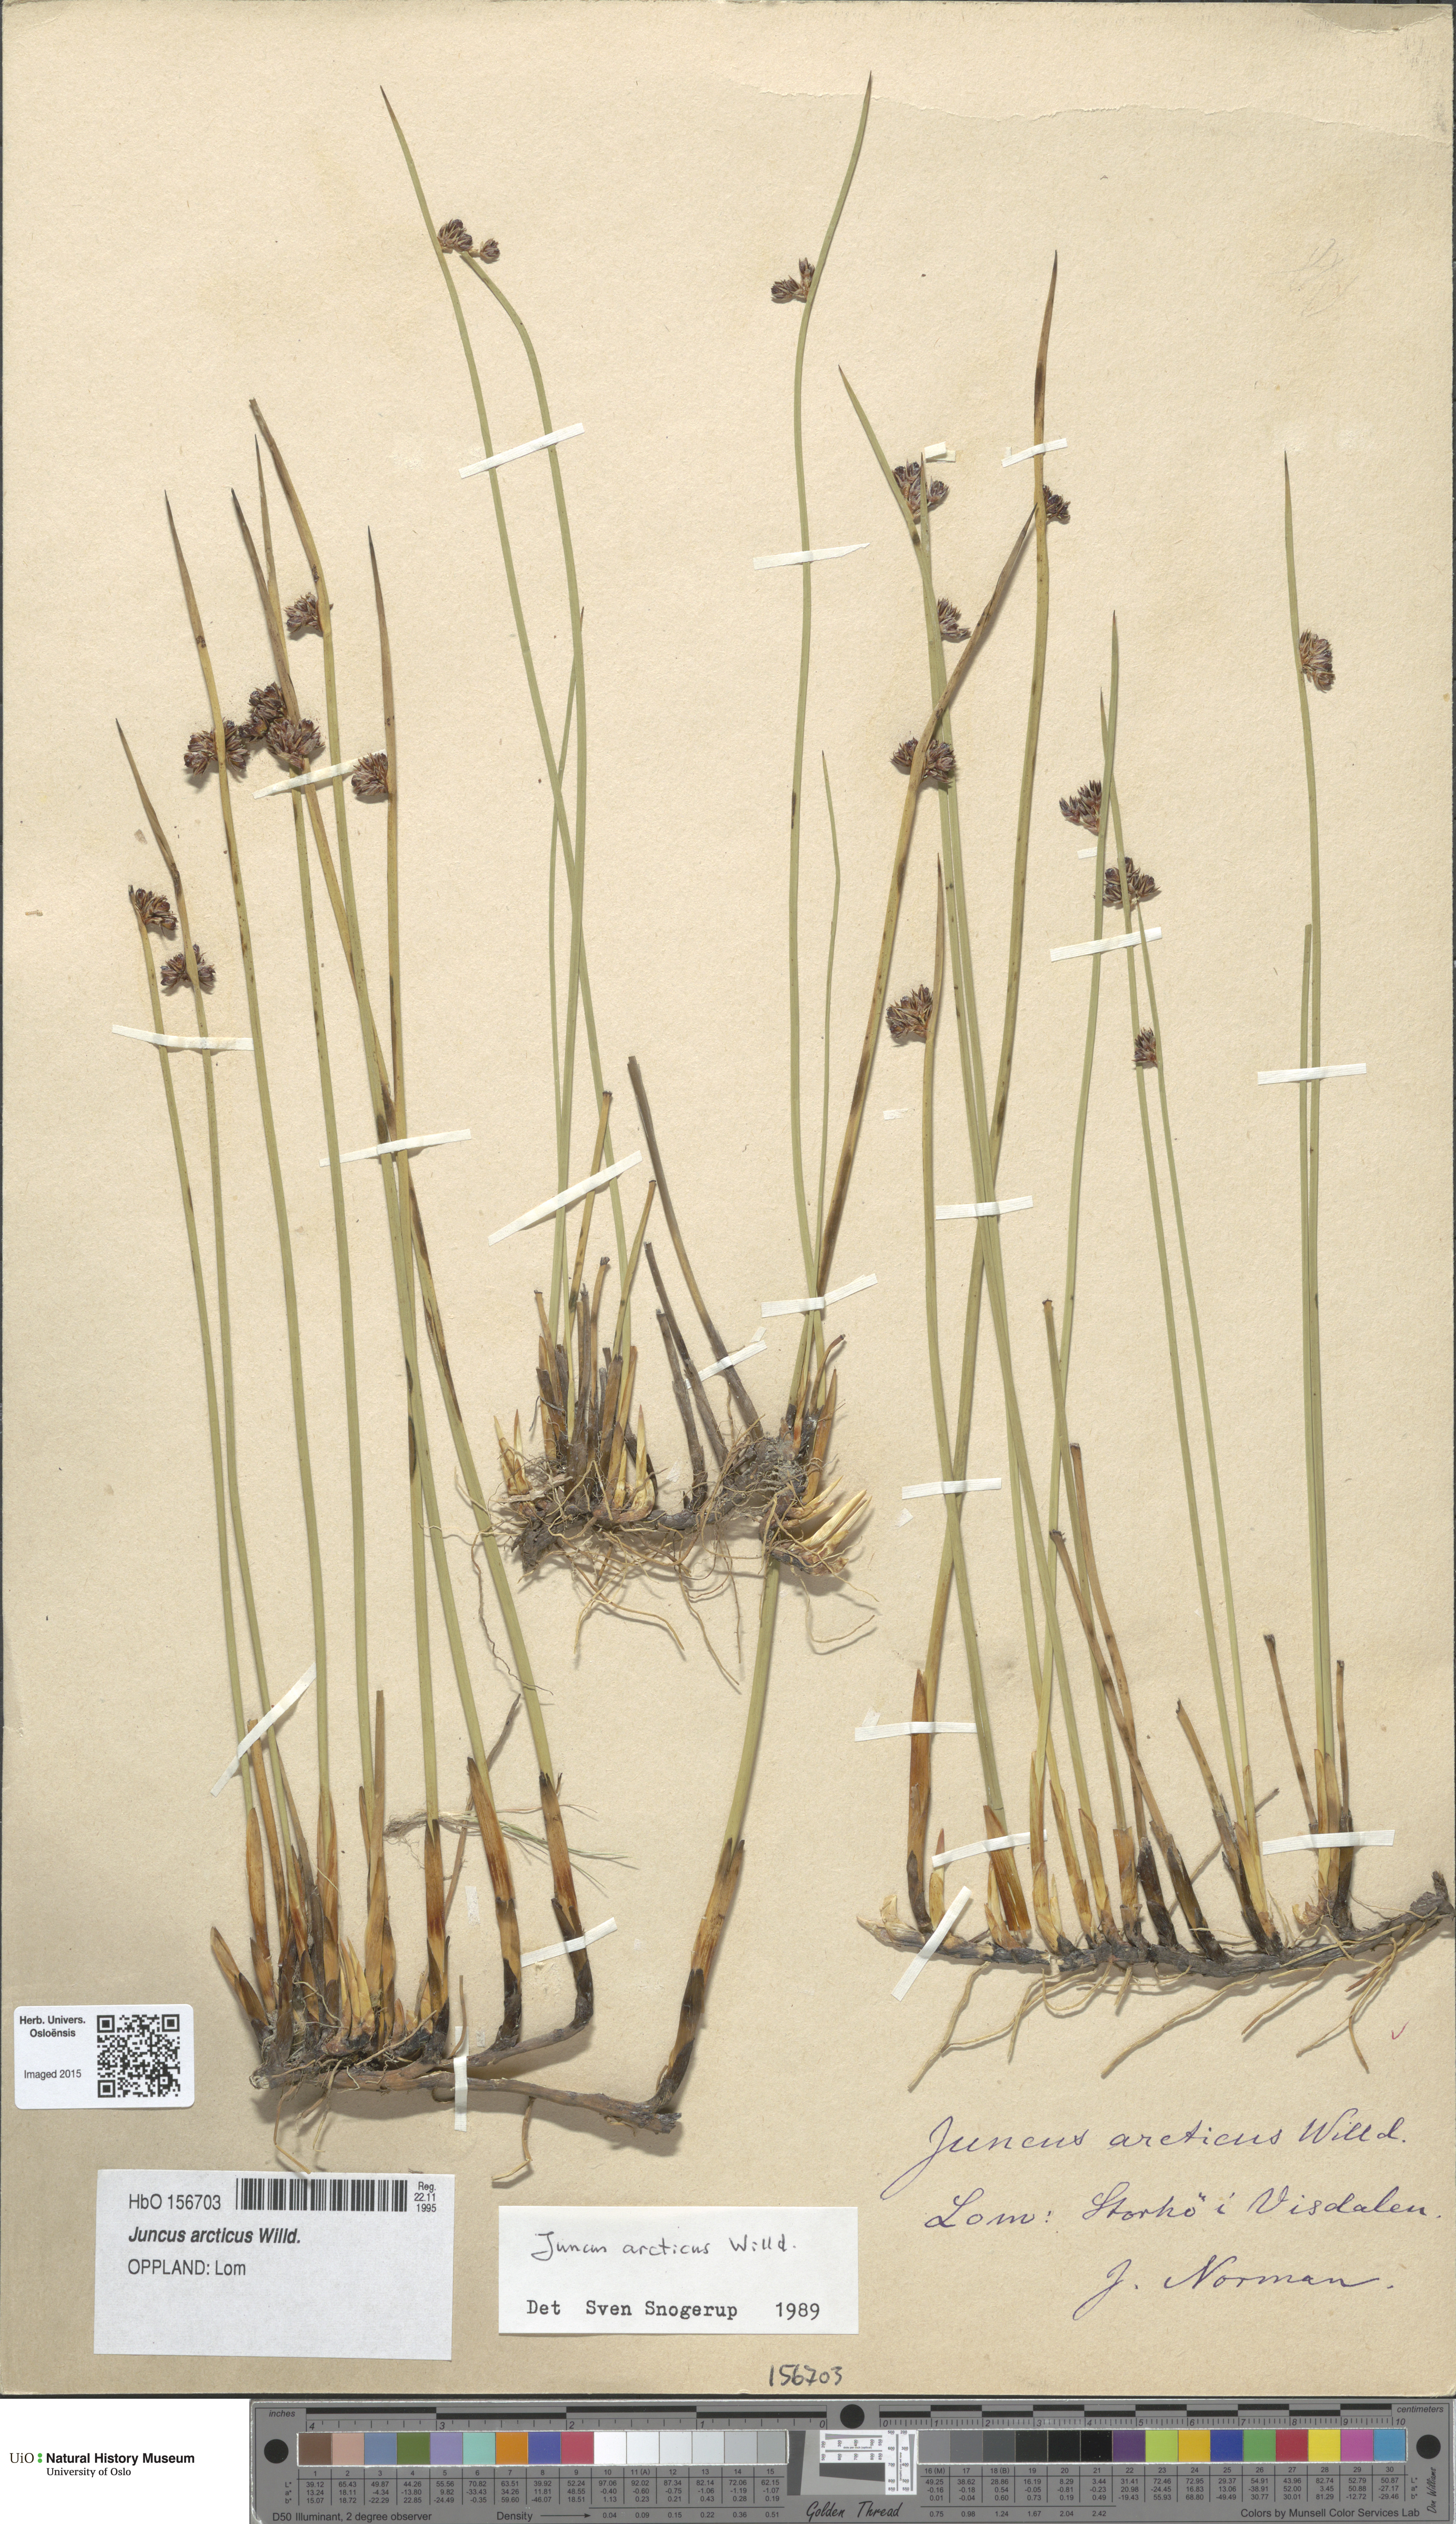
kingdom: Plantae
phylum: Tracheophyta
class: Liliopsida
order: Poales
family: Juncaceae
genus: Juncus
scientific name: Juncus arcticus
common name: Arctic rush
